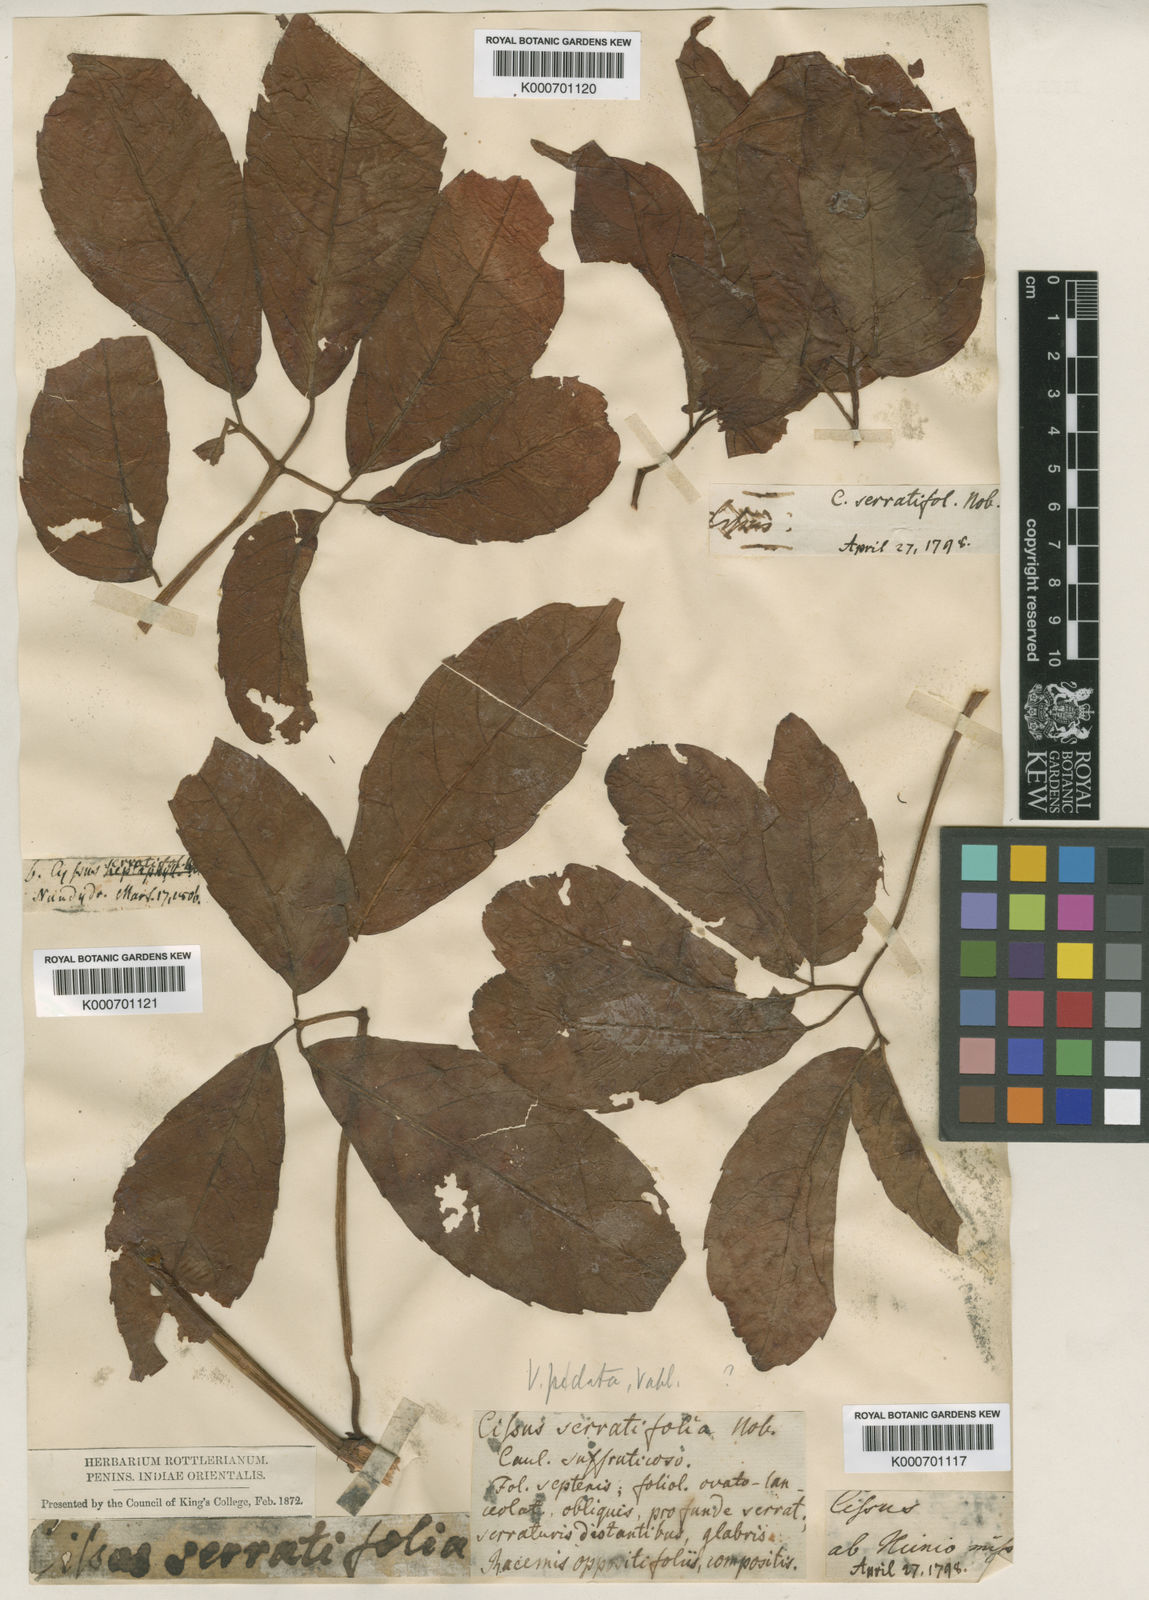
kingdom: Plantae
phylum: Tracheophyta
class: Magnoliopsida
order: Vitales
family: Vitaceae
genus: Tetrastigma
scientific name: Tetrastigma
